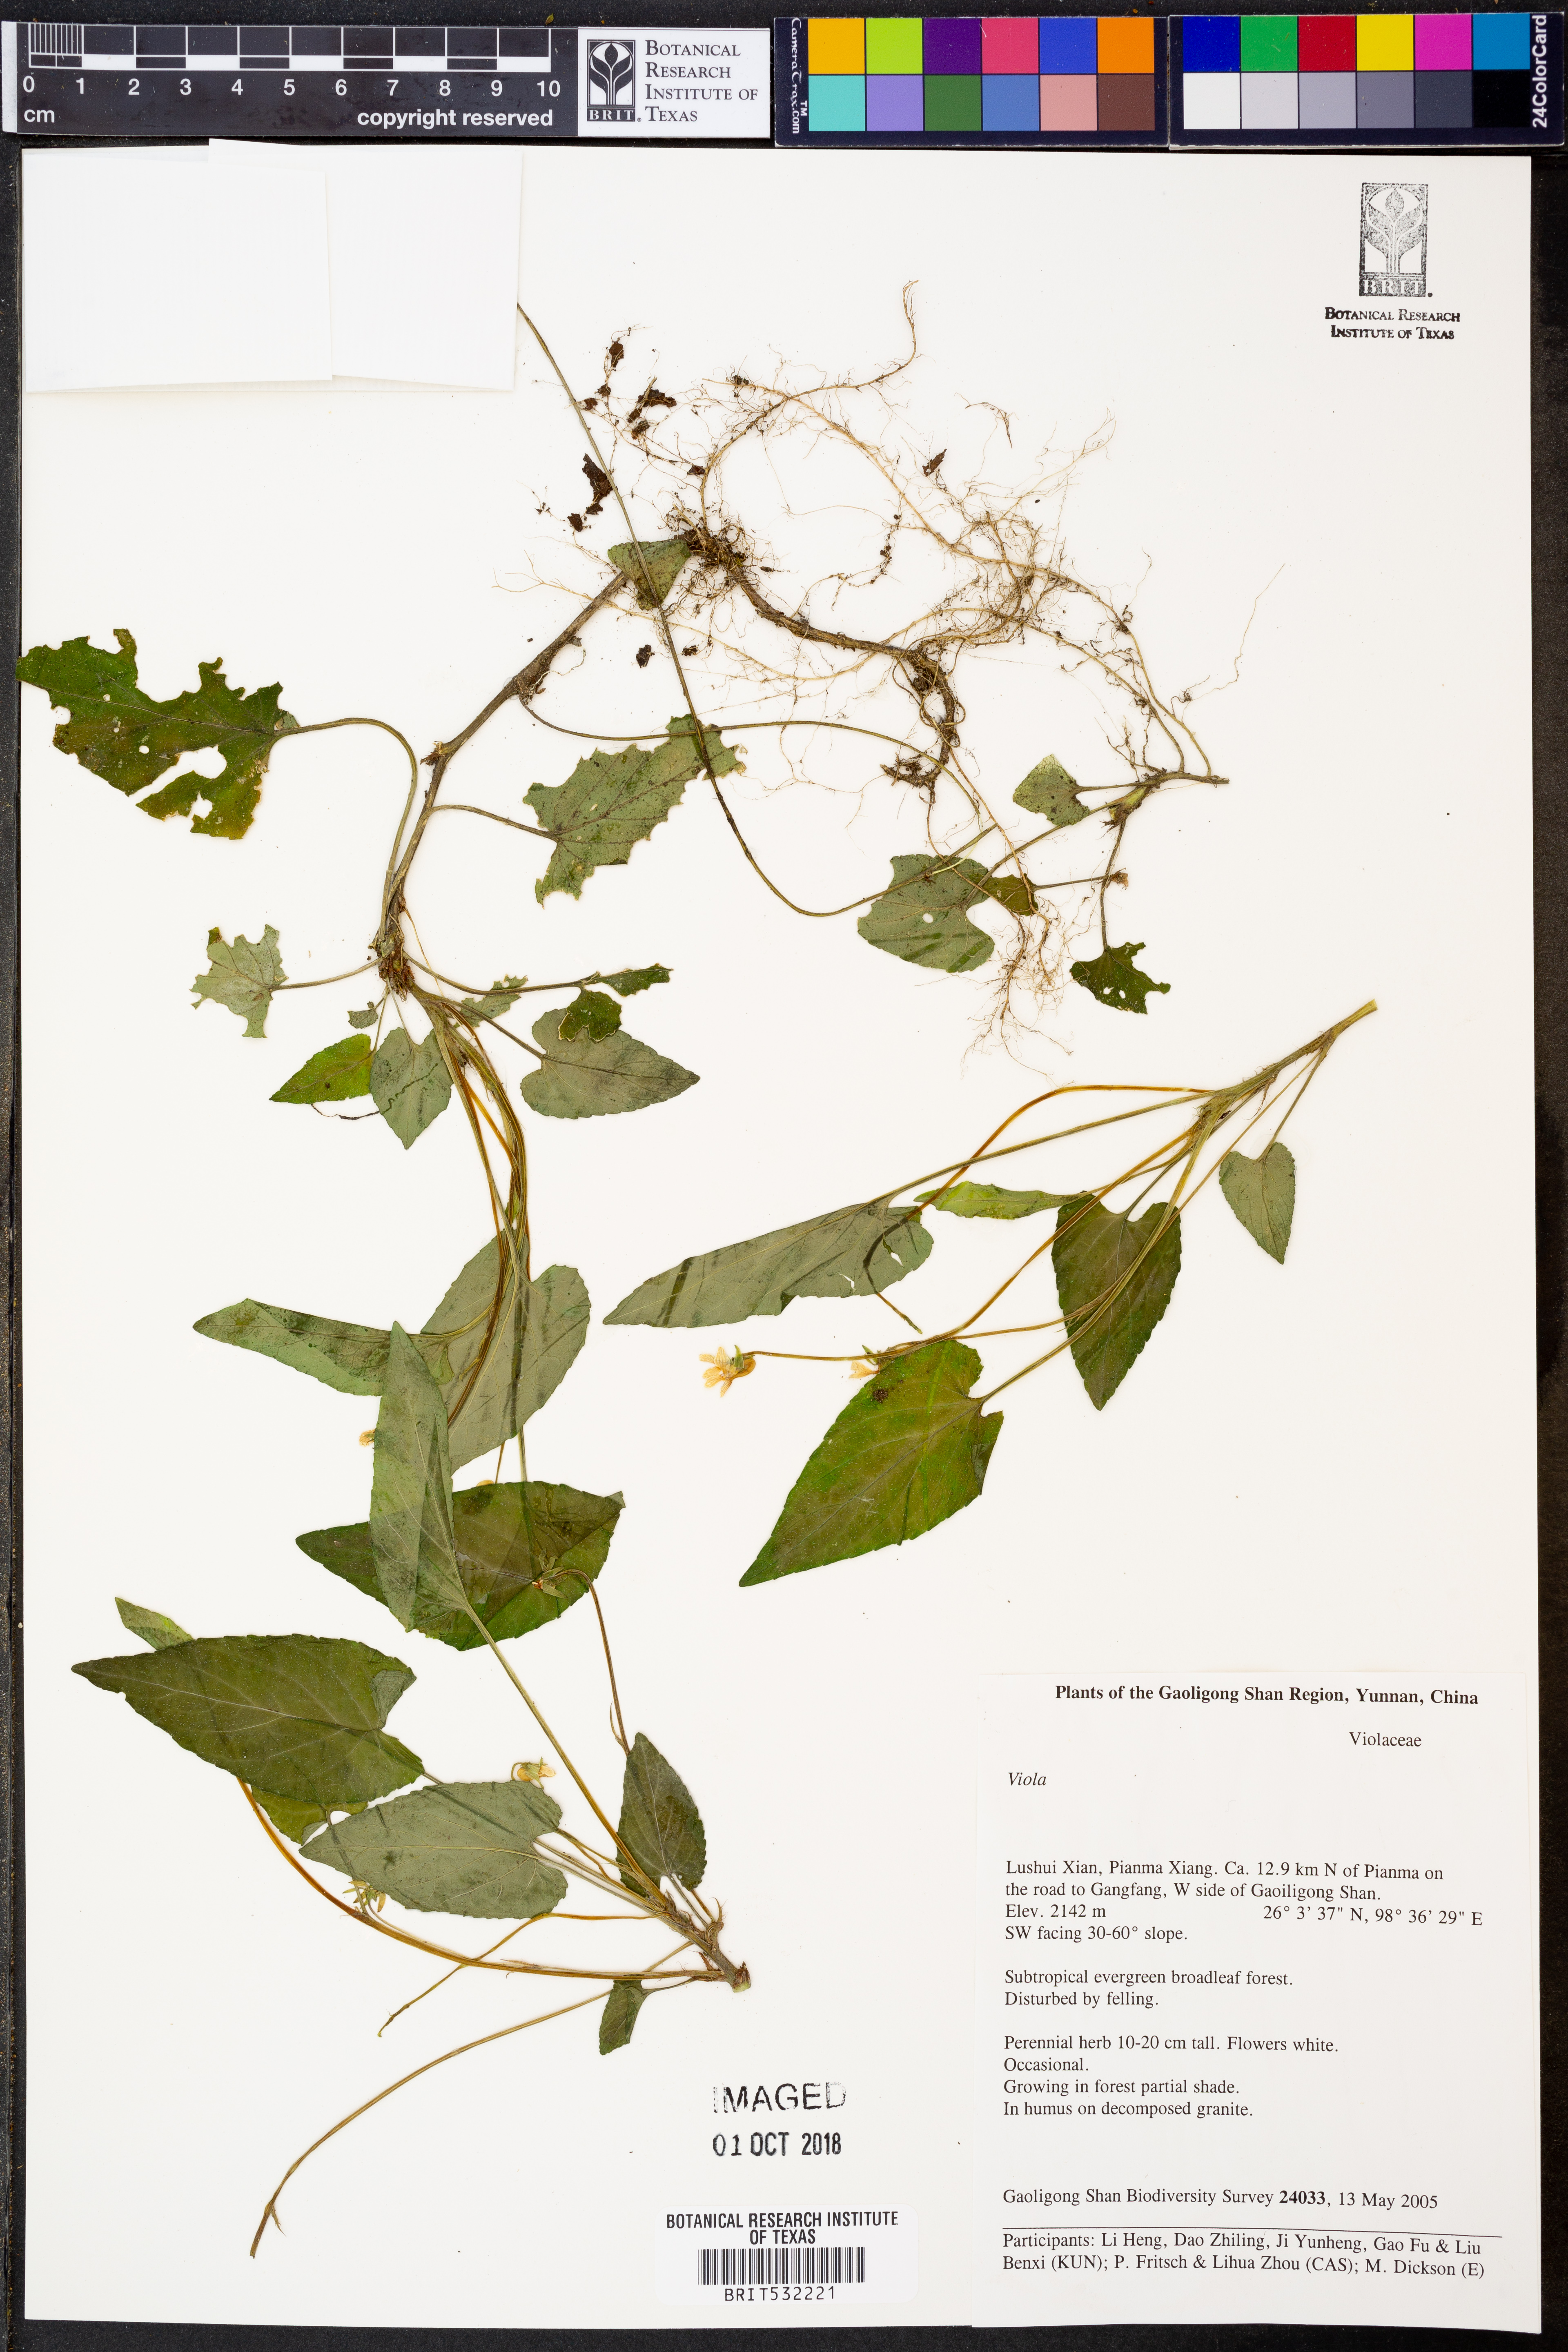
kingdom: Plantae
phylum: Tracheophyta
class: Magnoliopsida
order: Malpighiales
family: Violaceae
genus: Viola
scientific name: Viola
